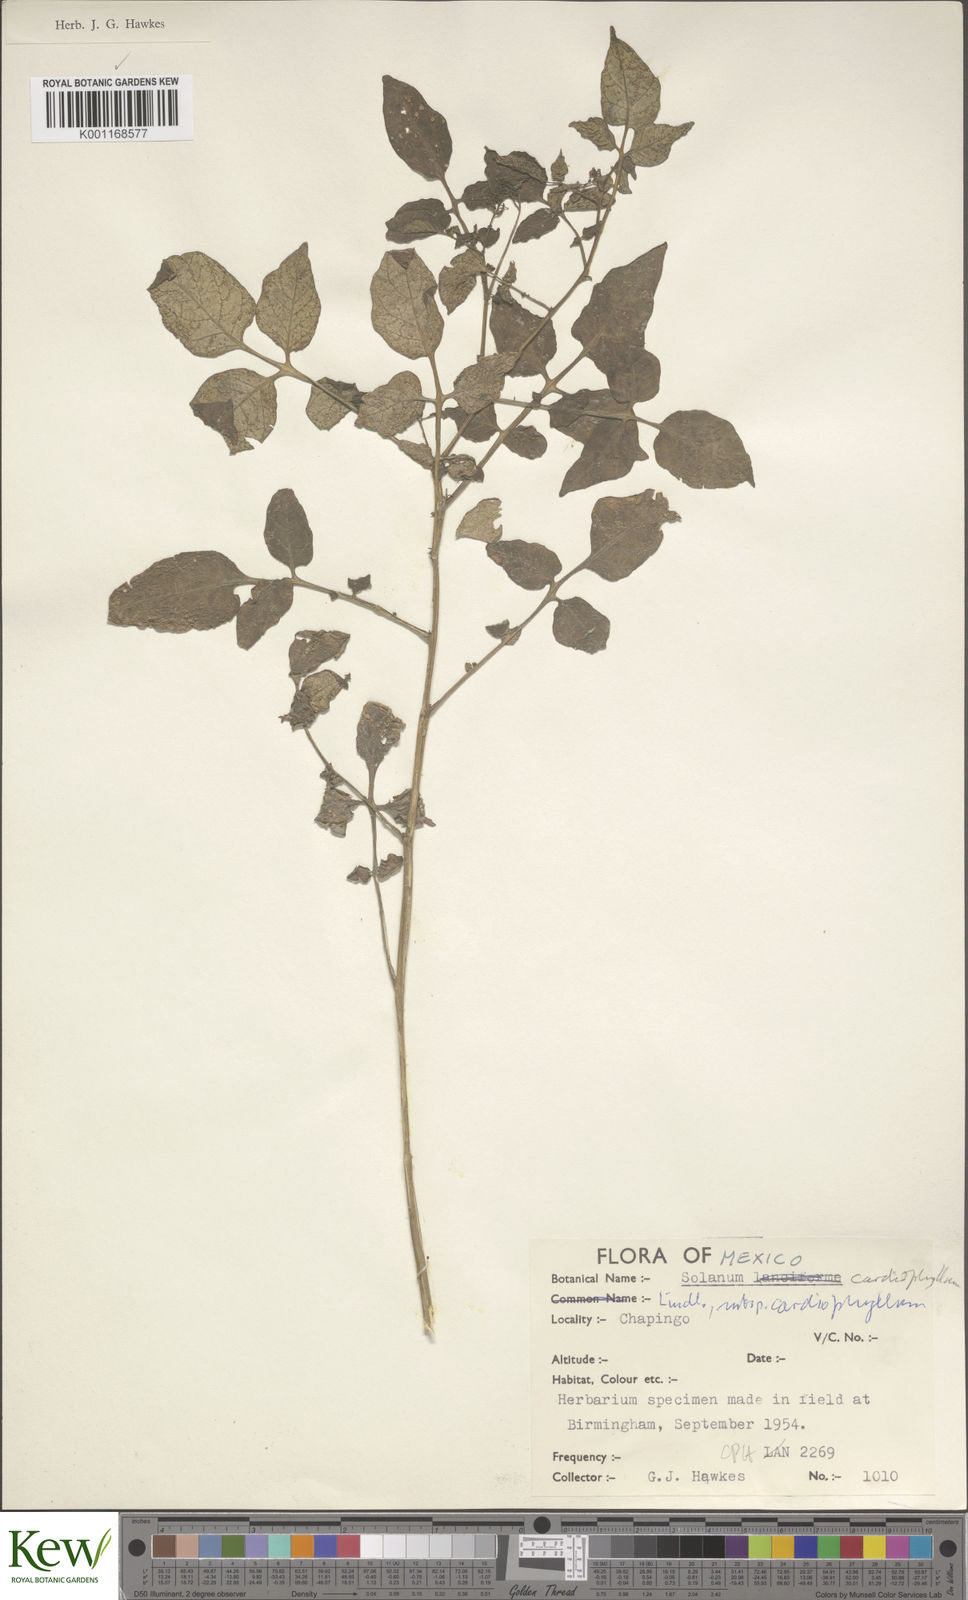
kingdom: Plantae
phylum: Tracheophyta
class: Magnoliopsida
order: Solanales
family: Solanaceae
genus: Solanum
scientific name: Solanum cardiophyllum
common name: Heartleaf horsenettle
